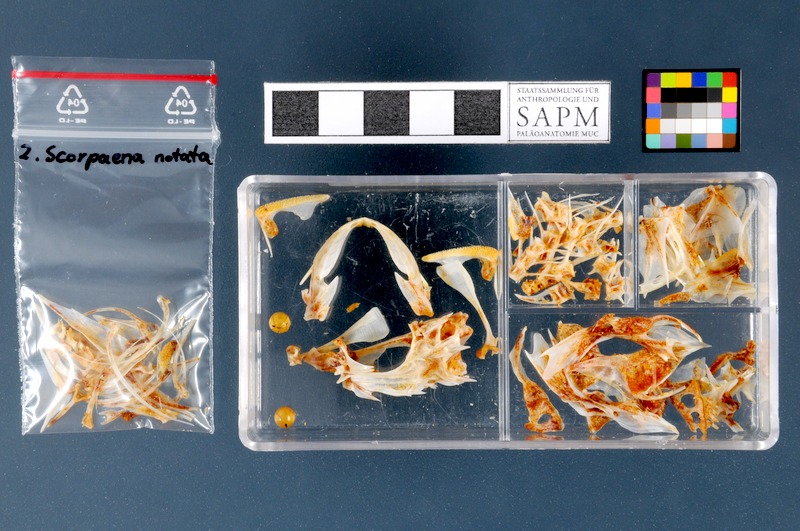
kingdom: Animalia
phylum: Chordata
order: Scorpaeniformes
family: Scorpaenidae
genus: Scorpaena
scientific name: Scorpaena notata
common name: Small red scorpionfish
